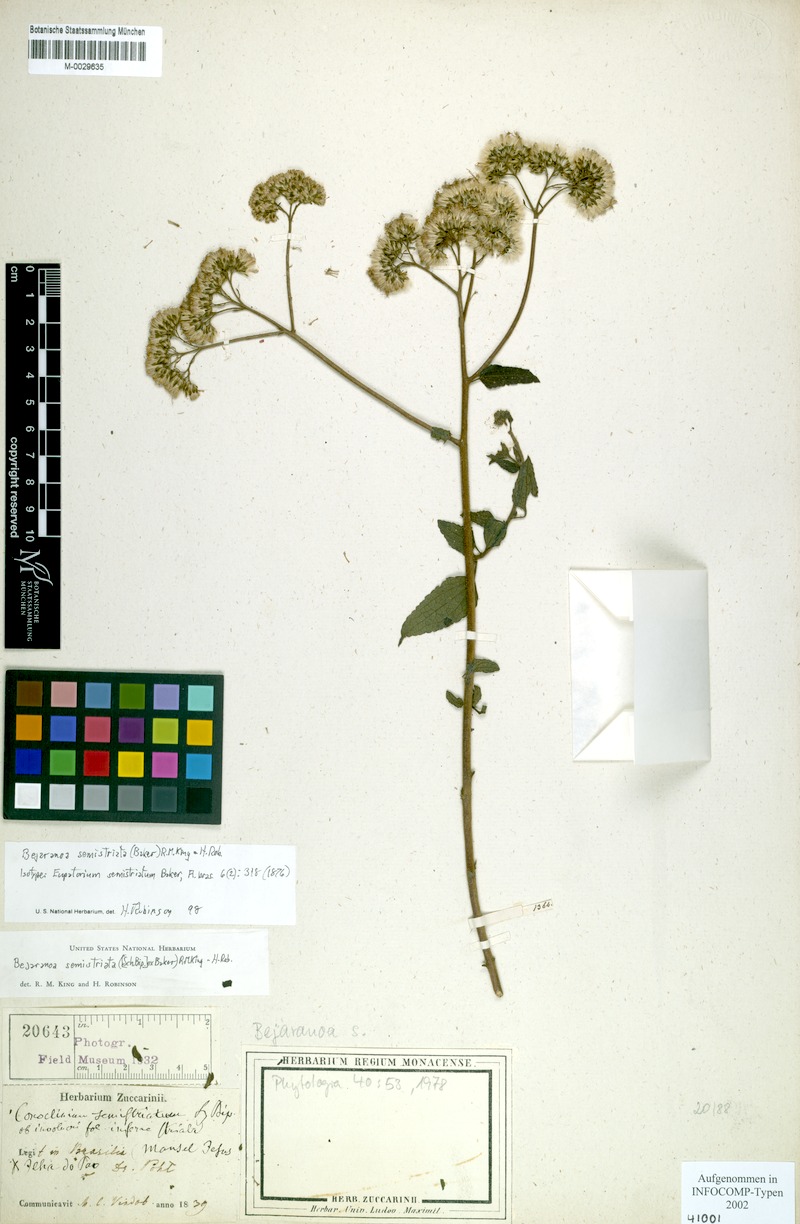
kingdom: Plantae
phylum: Tracheophyta
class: Magnoliopsida
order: Asterales
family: Asteraceae
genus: Bejaranoa
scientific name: Bejaranoa semistriata
